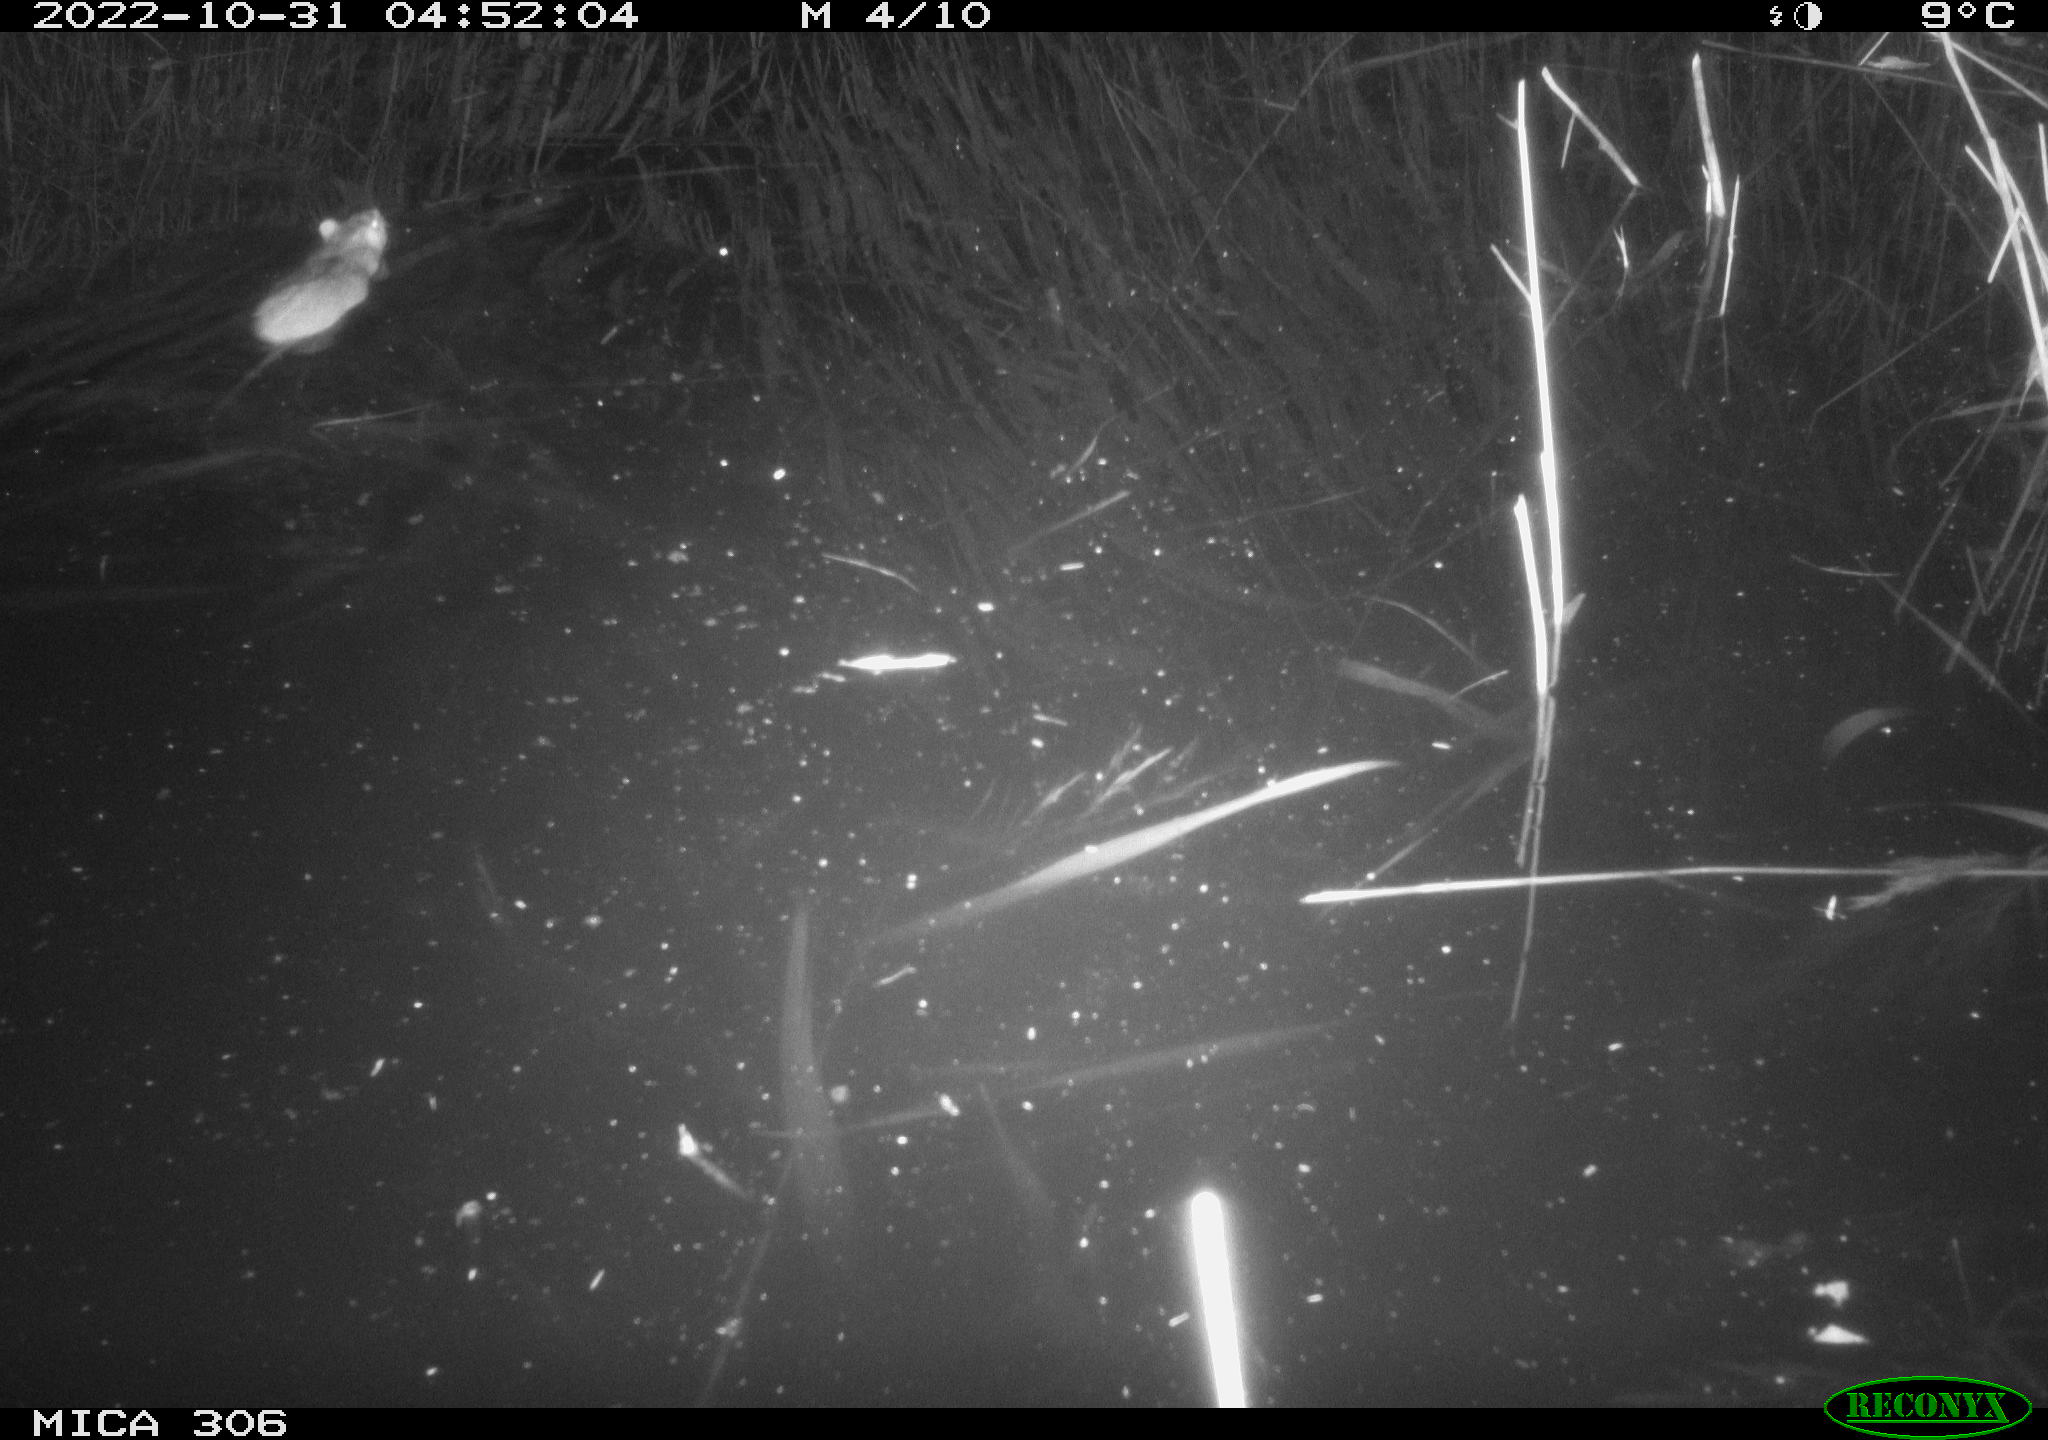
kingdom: Animalia
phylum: Chordata
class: Mammalia
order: Rodentia
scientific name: Rodentia
